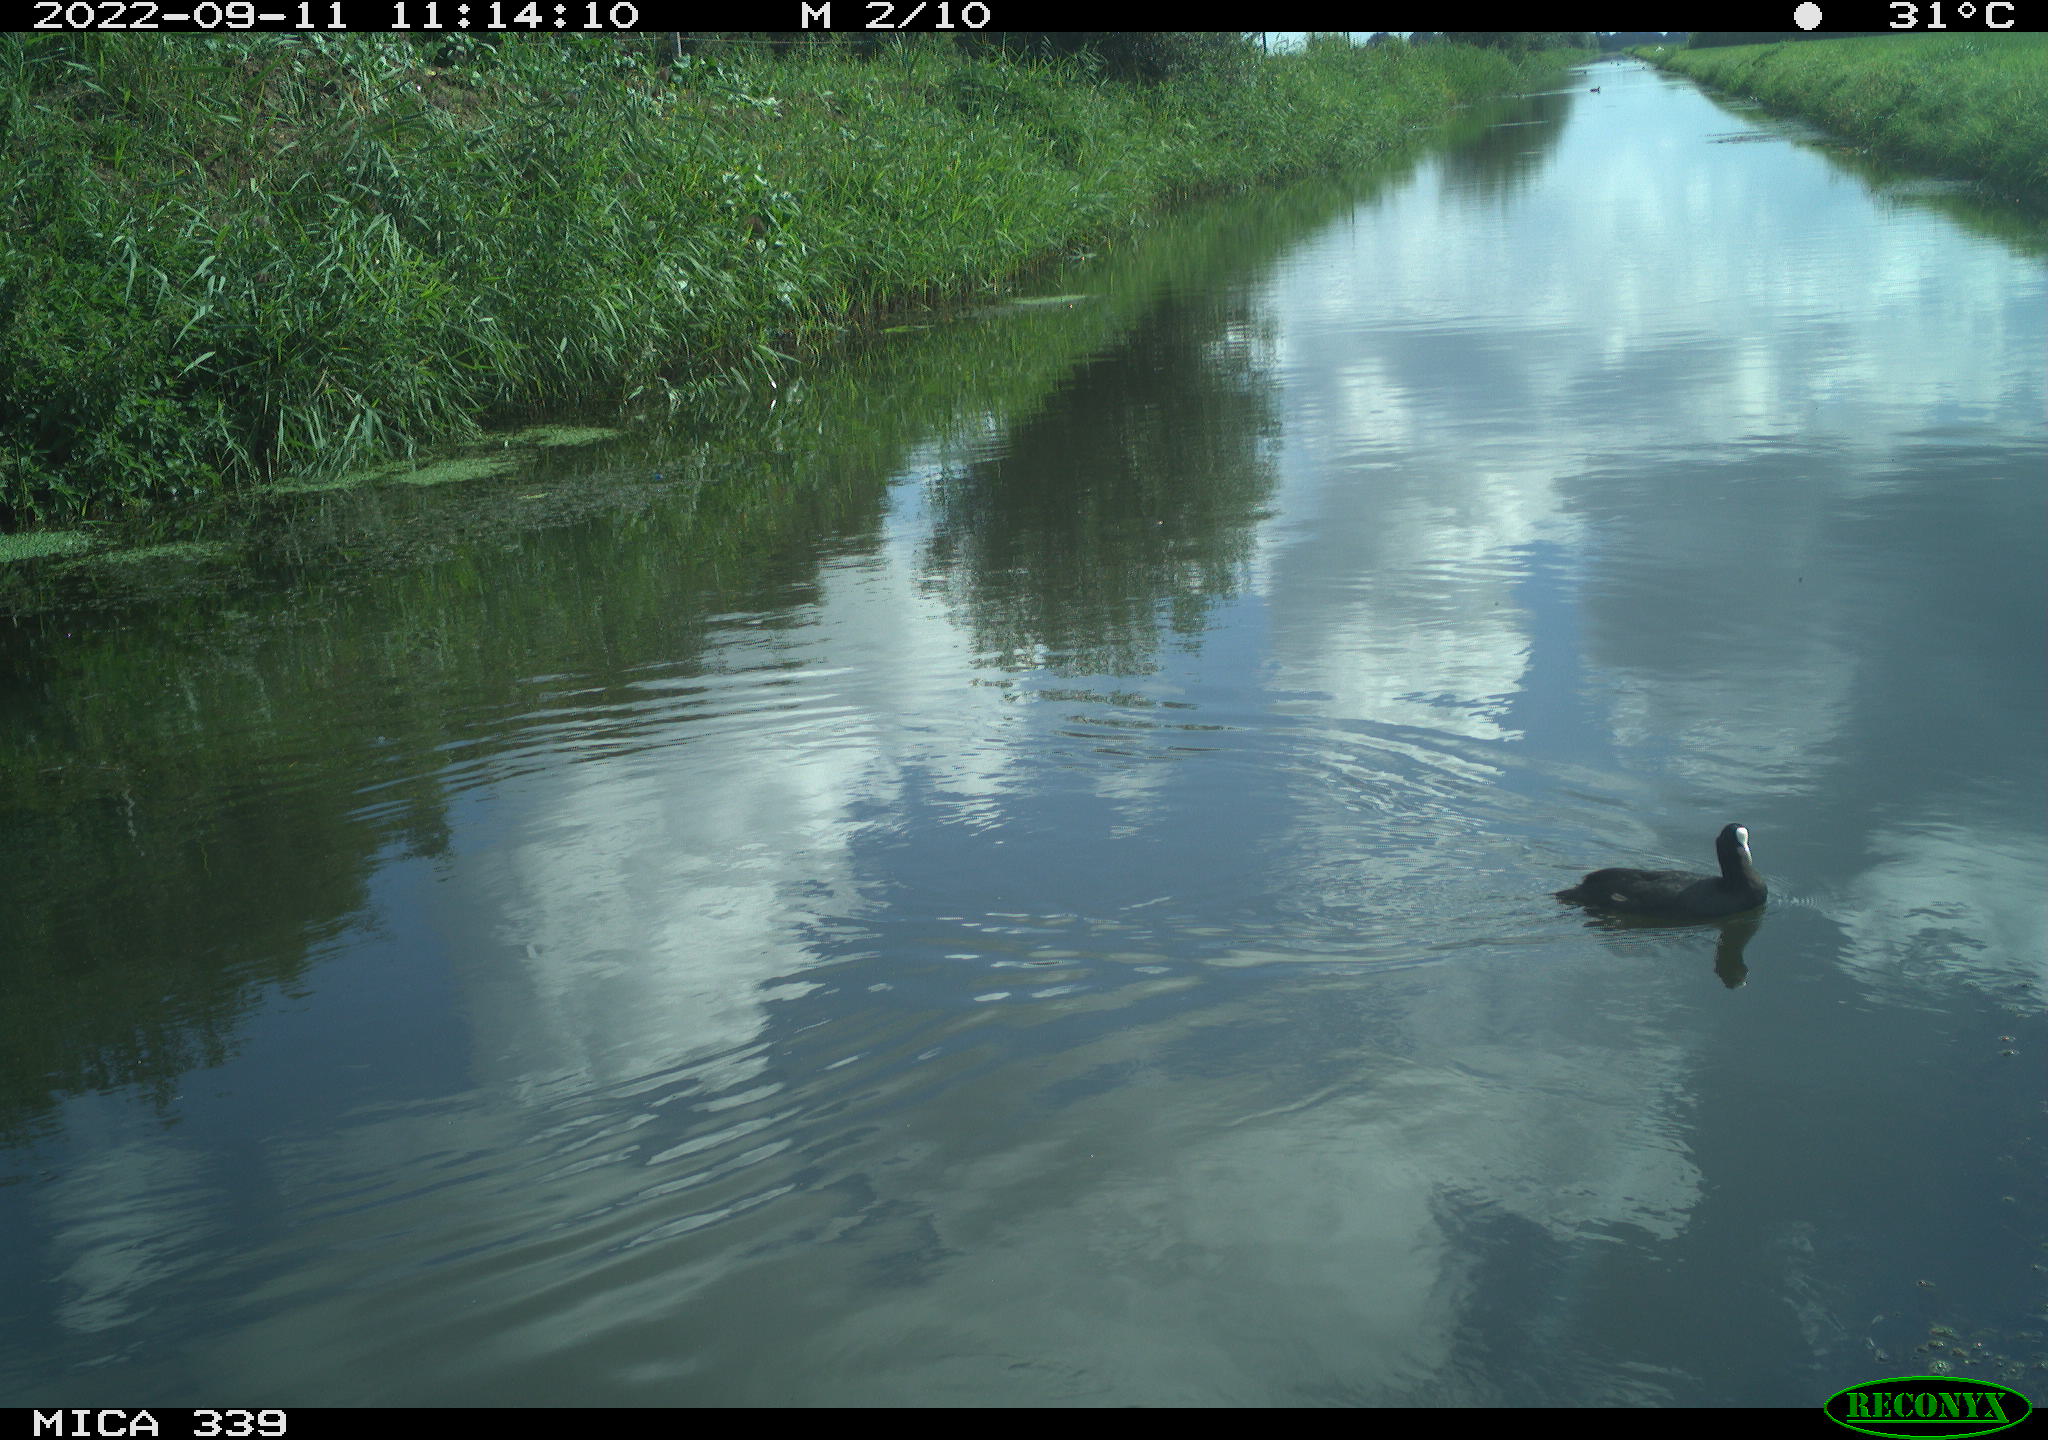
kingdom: Animalia
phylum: Chordata
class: Aves
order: Gruiformes
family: Rallidae
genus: Fulica
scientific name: Fulica atra
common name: Eurasian coot
